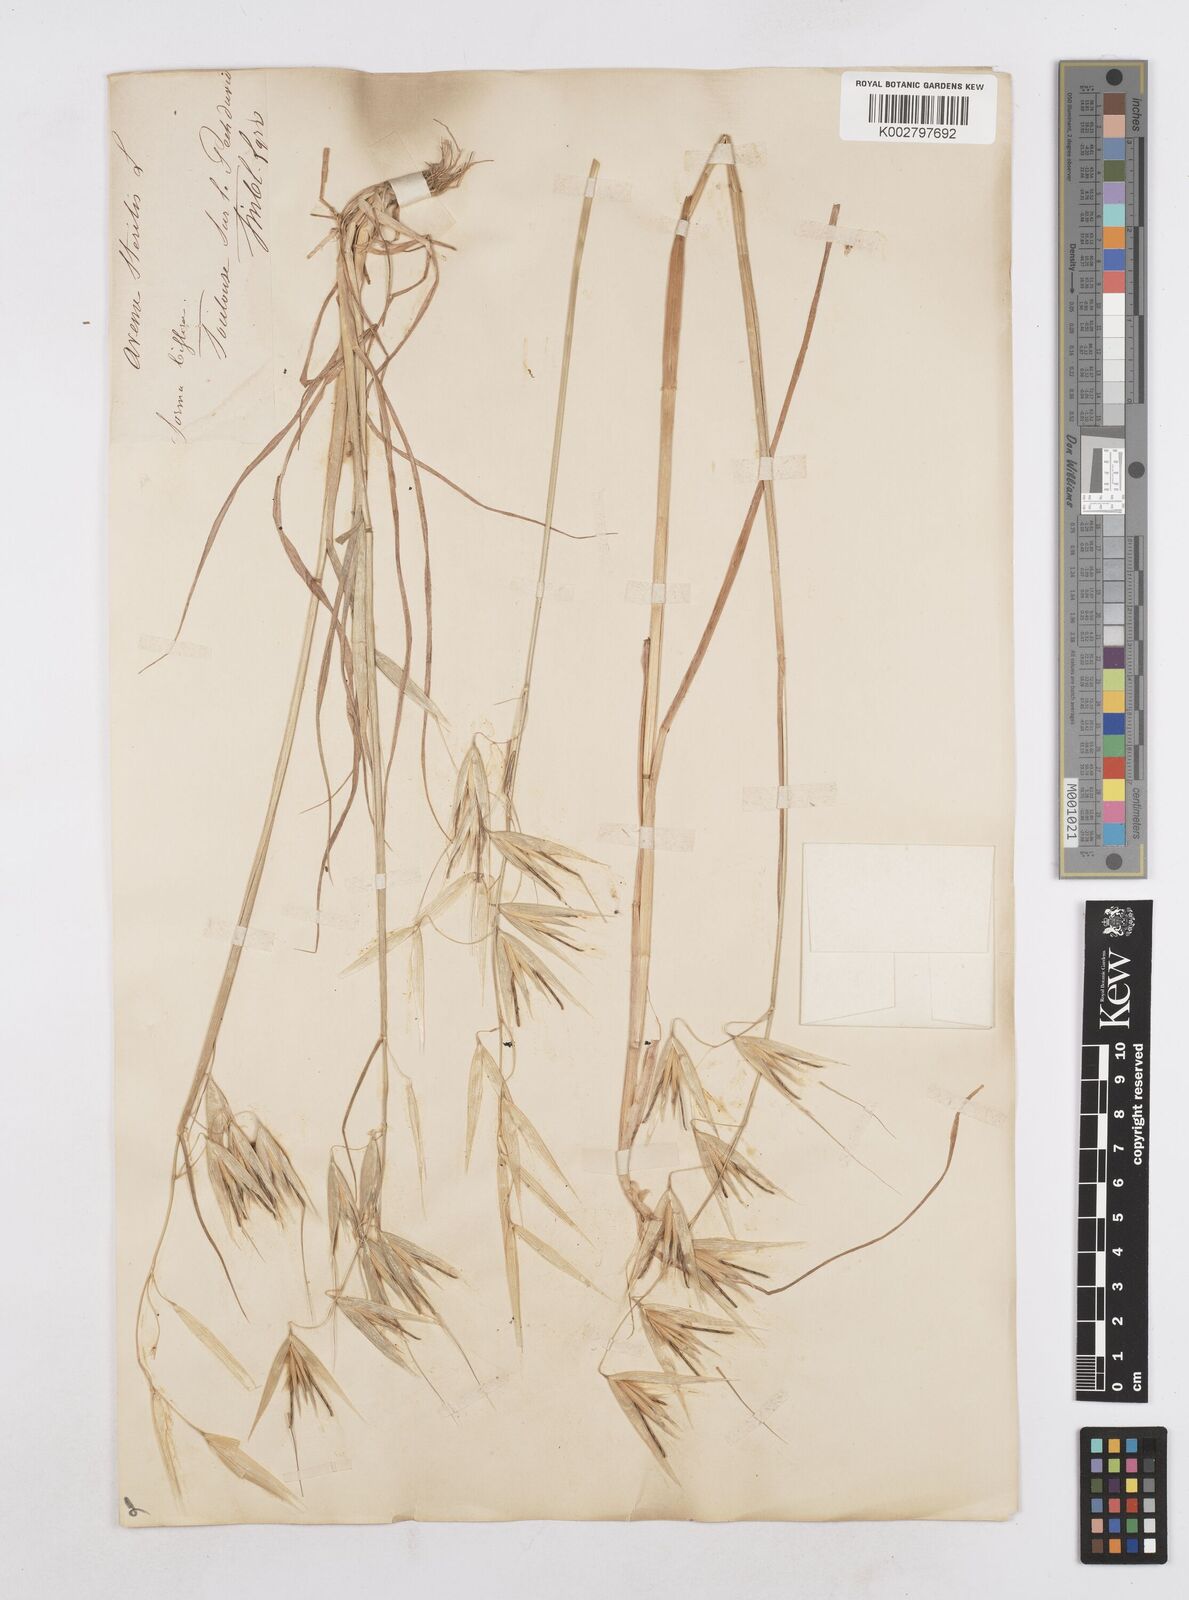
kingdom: Plantae
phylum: Tracheophyta
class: Liliopsida
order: Poales
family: Poaceae
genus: Avena
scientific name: Avena sterilis
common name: Animated oat
